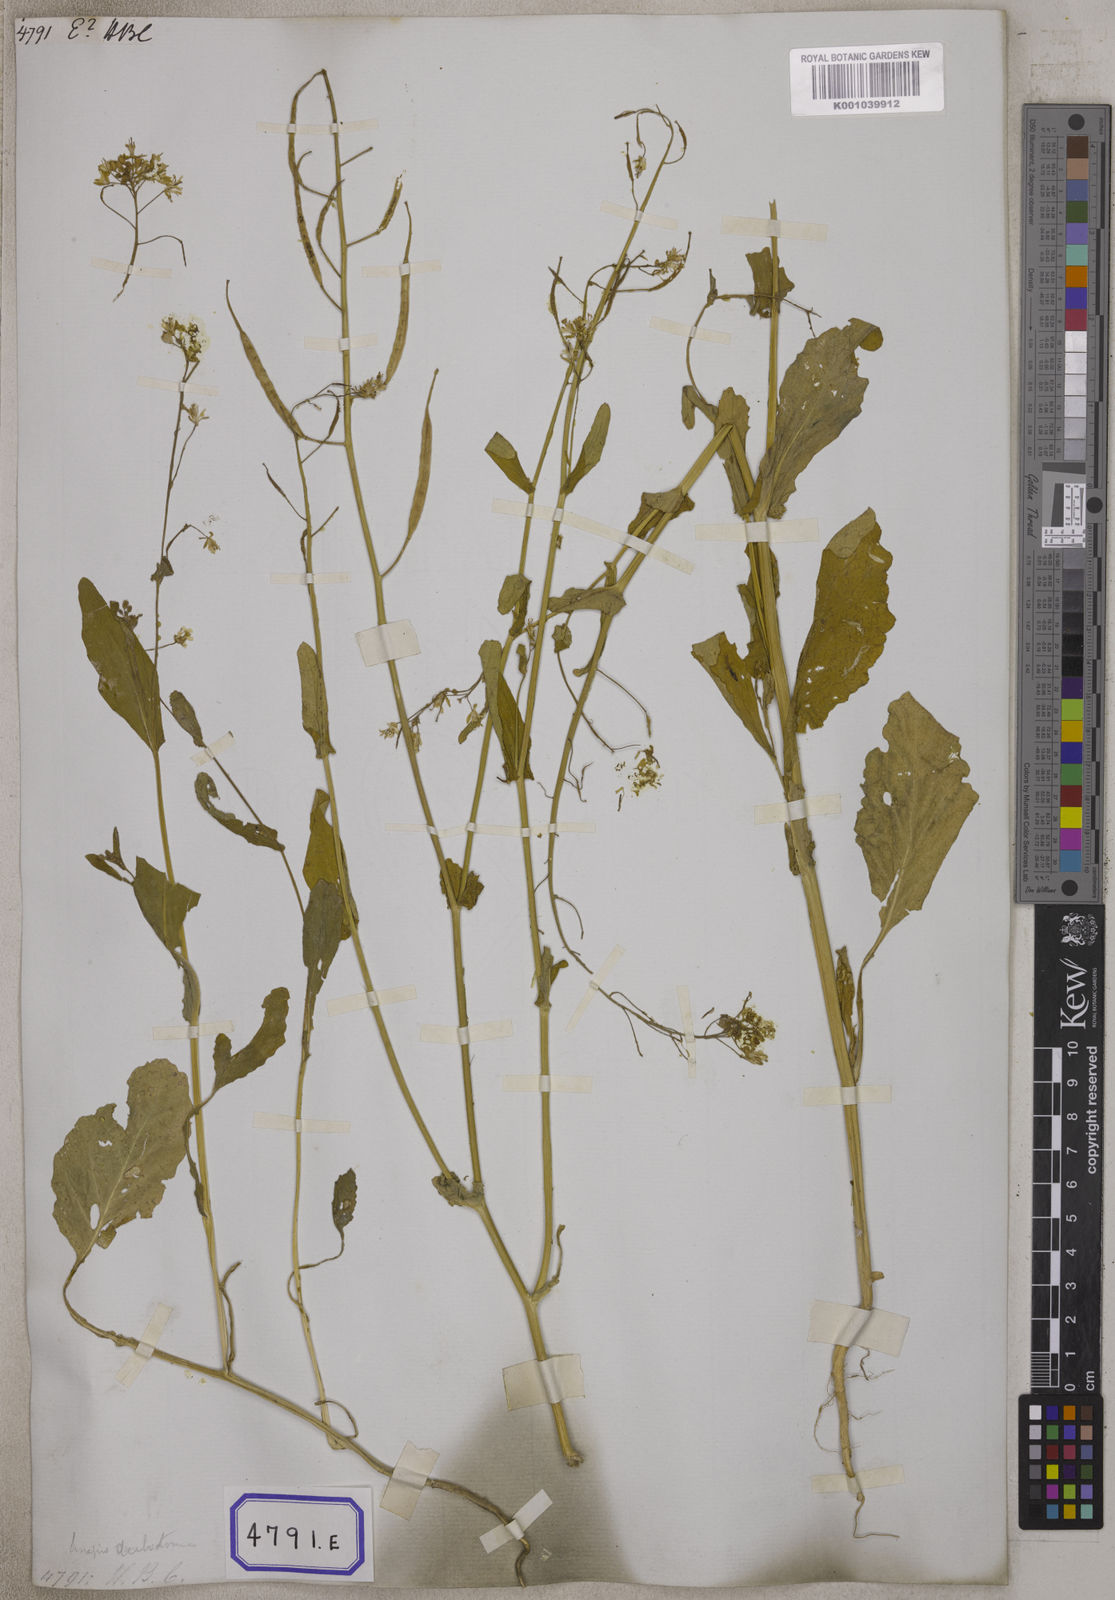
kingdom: Plantae
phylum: Tracheophyta
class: Magnoliopsida
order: Brassicales
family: Brassicaceae
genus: Brassica
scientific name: Brassica rapa
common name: Field mustard
